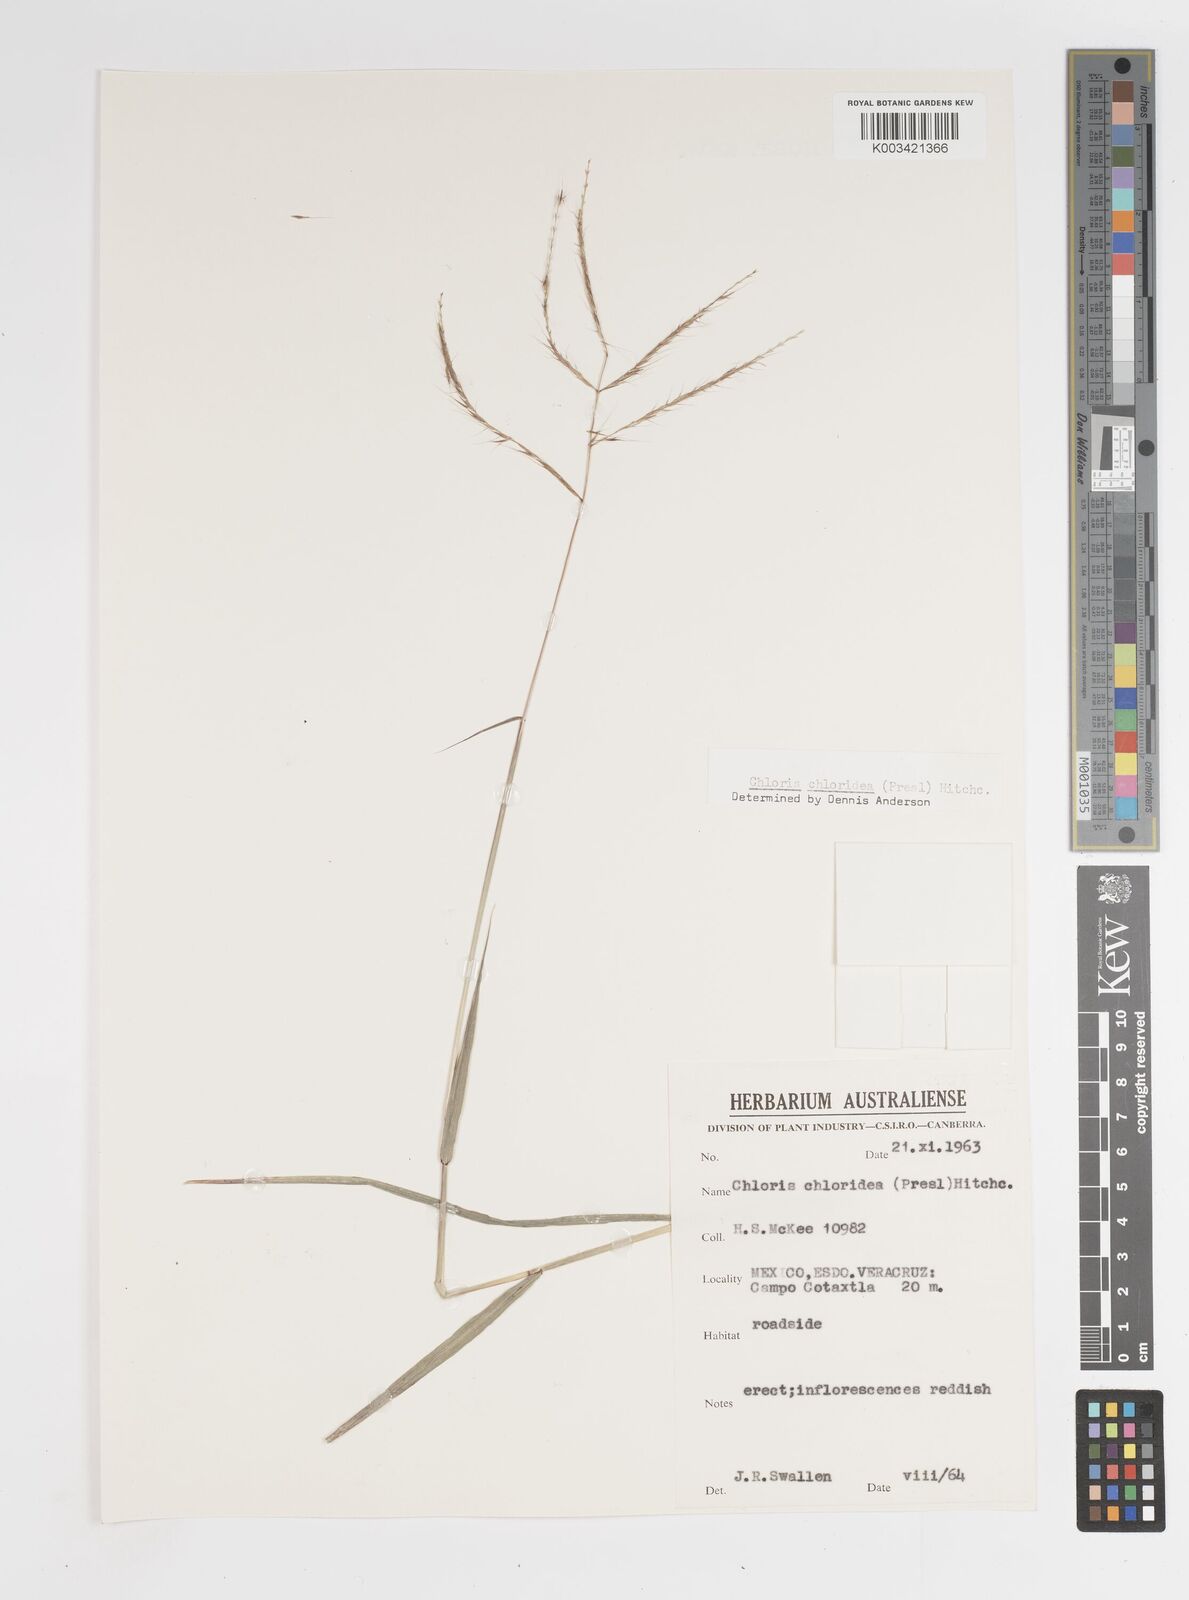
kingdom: Plantae
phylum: Tracheophyta
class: Liliopsida
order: Poales
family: Poaceae
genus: Tetrapogon
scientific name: Tetrapogon chlorideus
